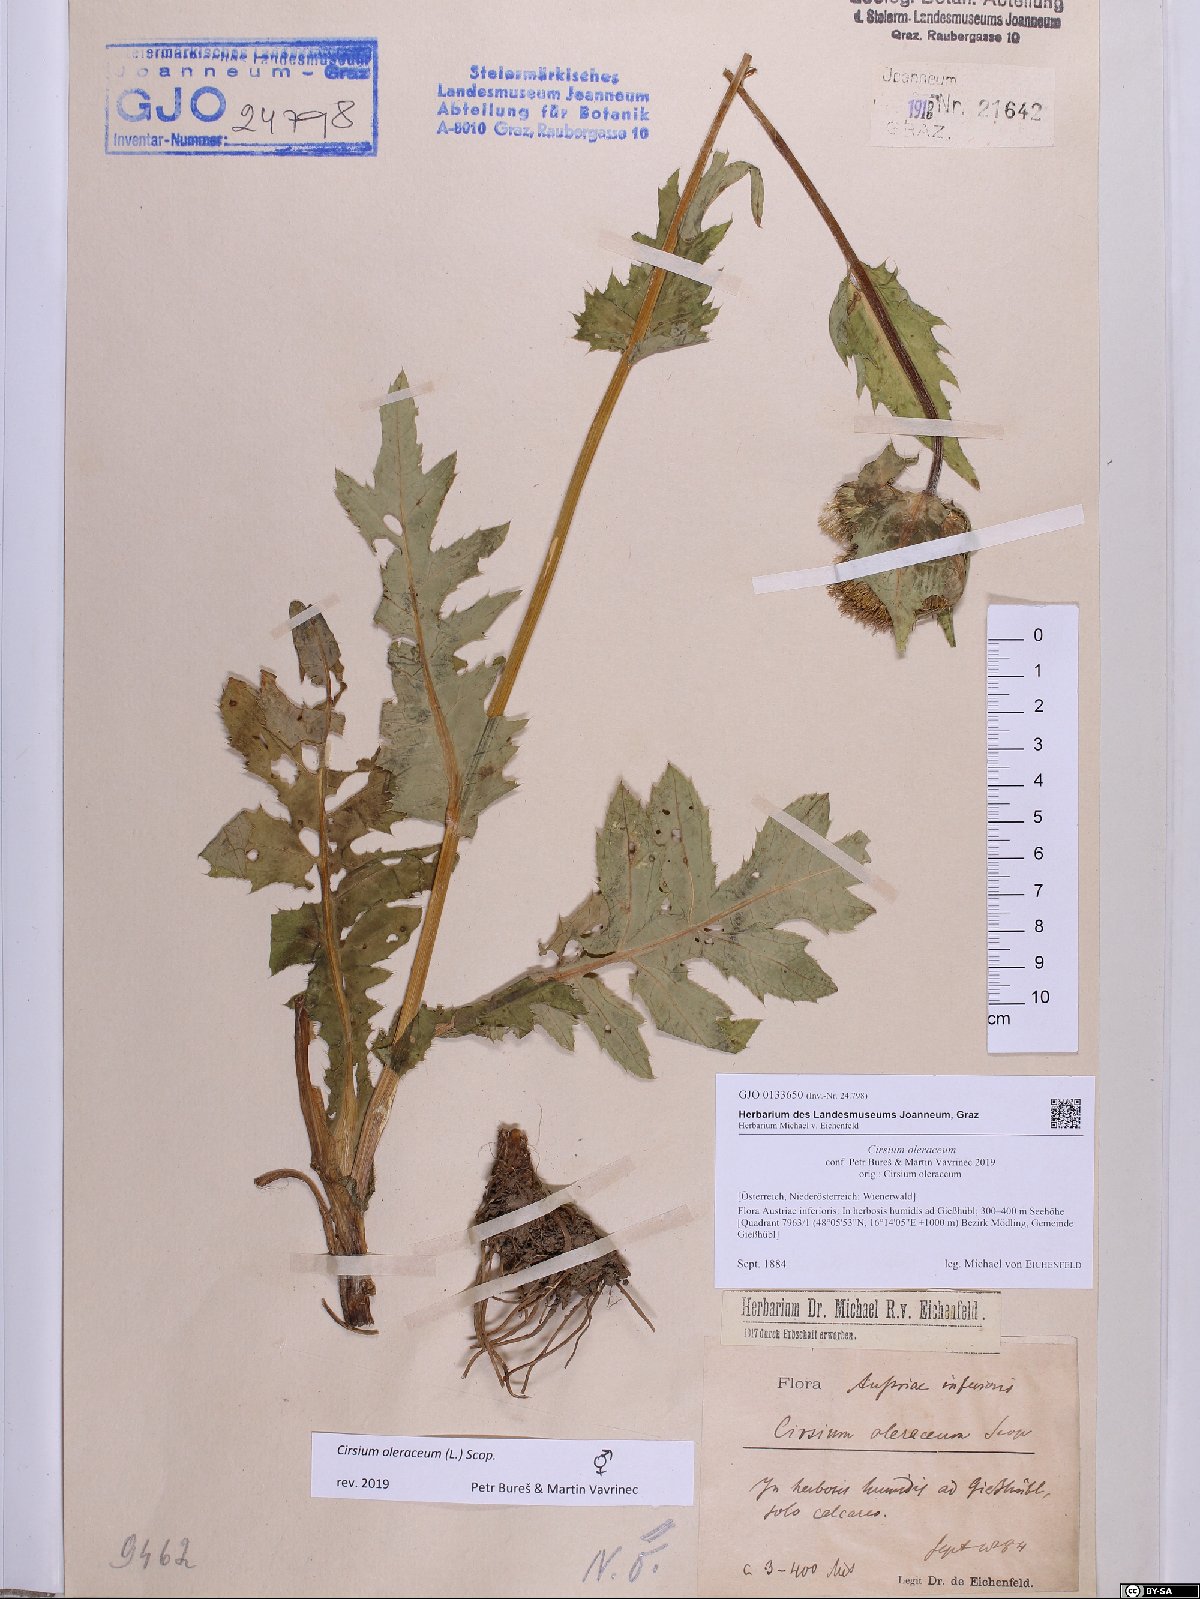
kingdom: Plantae
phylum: Tracheophyta
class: Magnoliopsida
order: Asterales
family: Asteraceae
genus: Cirsium
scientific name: Cirsium oleraceum
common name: Cabbage thistle
